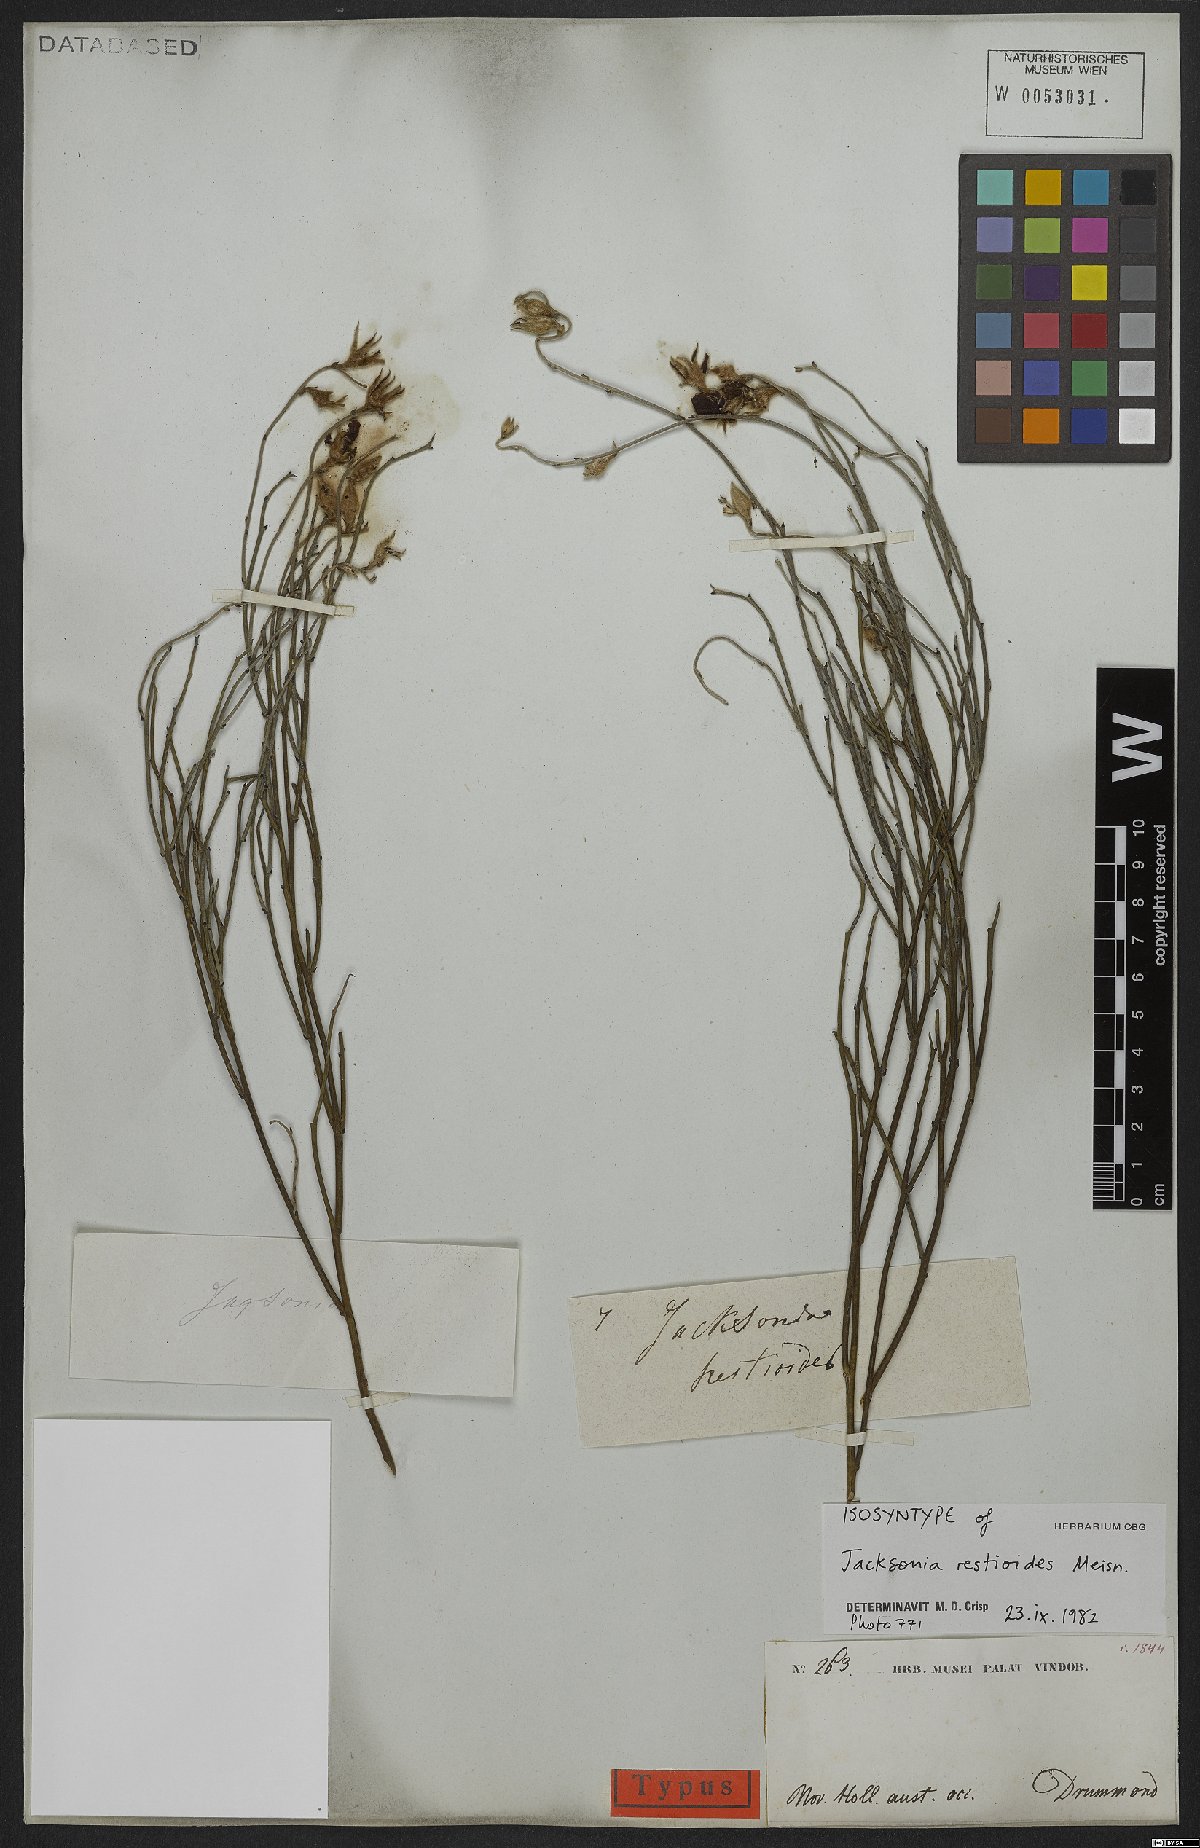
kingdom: Plantae
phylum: Tracheophyta
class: Magnoliopsida
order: Fabales
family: Fabaceae
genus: Jacksonia
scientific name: Jacksonia restioides
